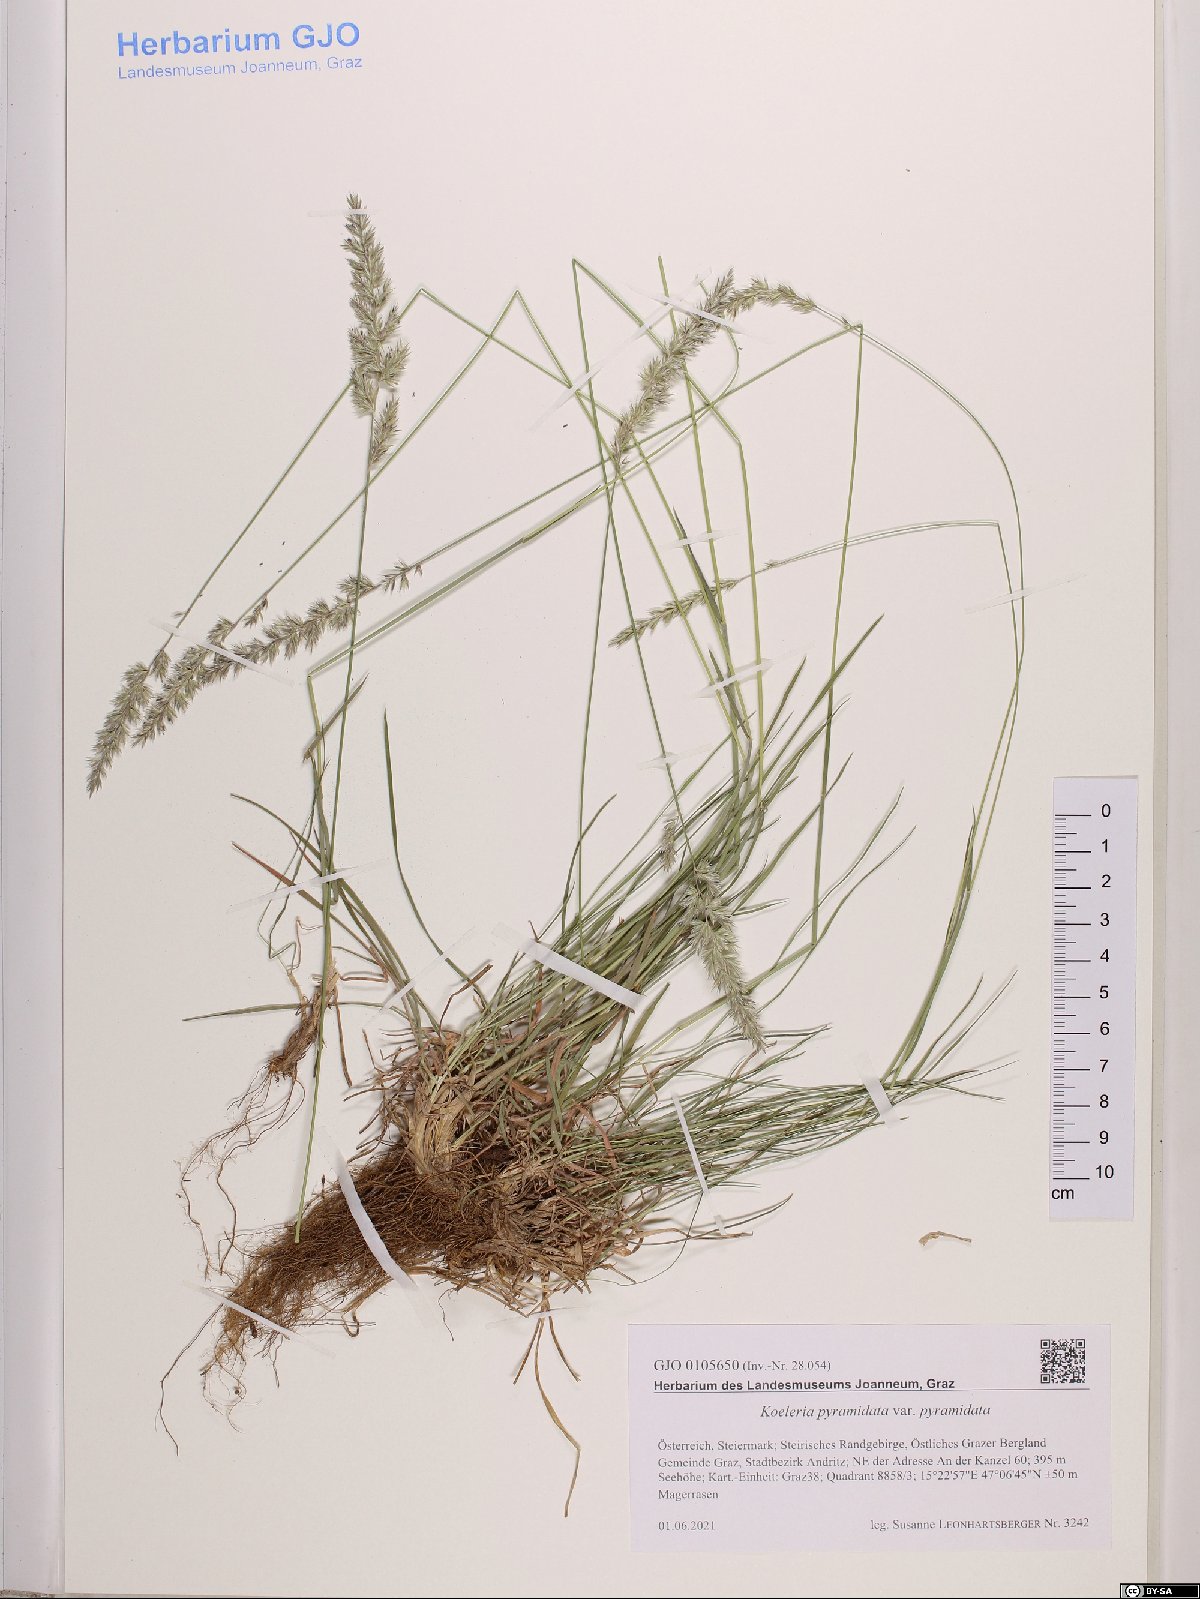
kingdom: Plantae
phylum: Tracheophyta
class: Liliopsida
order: Poales
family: Poaceae
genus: Koeleria
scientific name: Koeleria pyramidata
